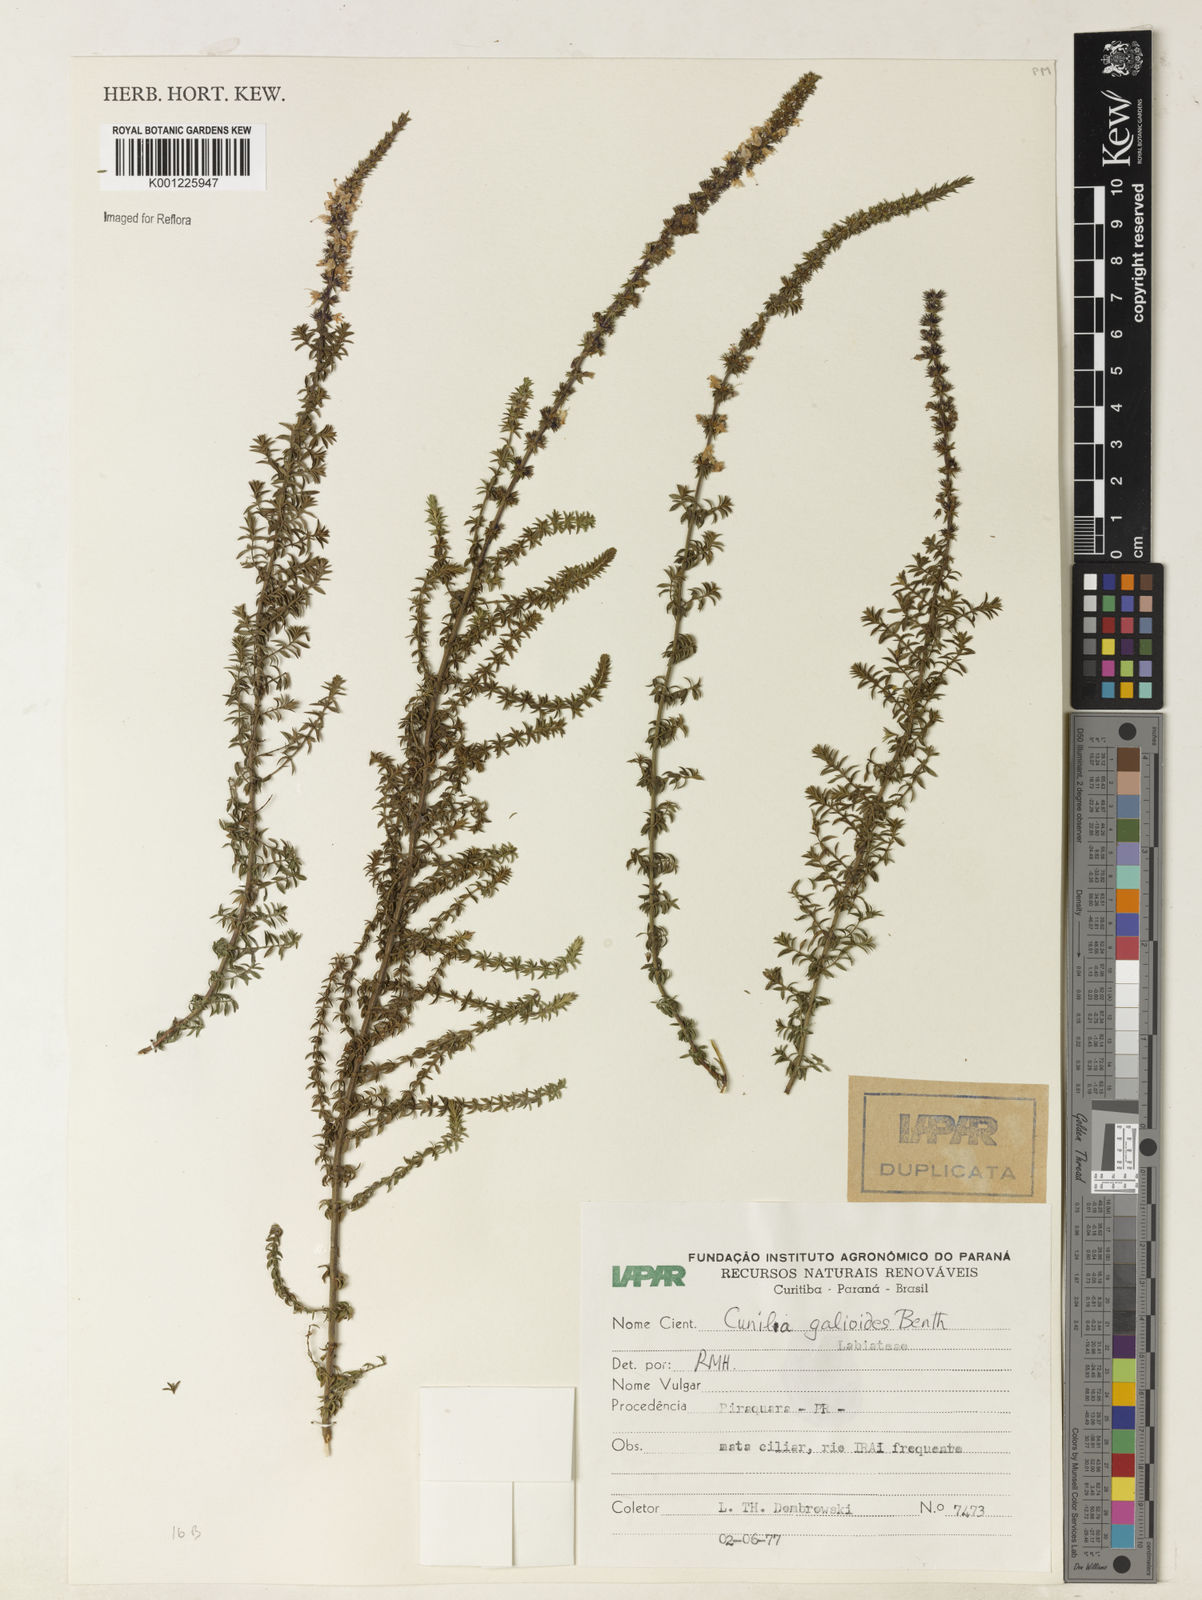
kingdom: Plantae
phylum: Tracheophyta
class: Magnoliopsida
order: Lamiales
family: Lamiaceae
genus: Cunila
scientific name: Cunila galioides
